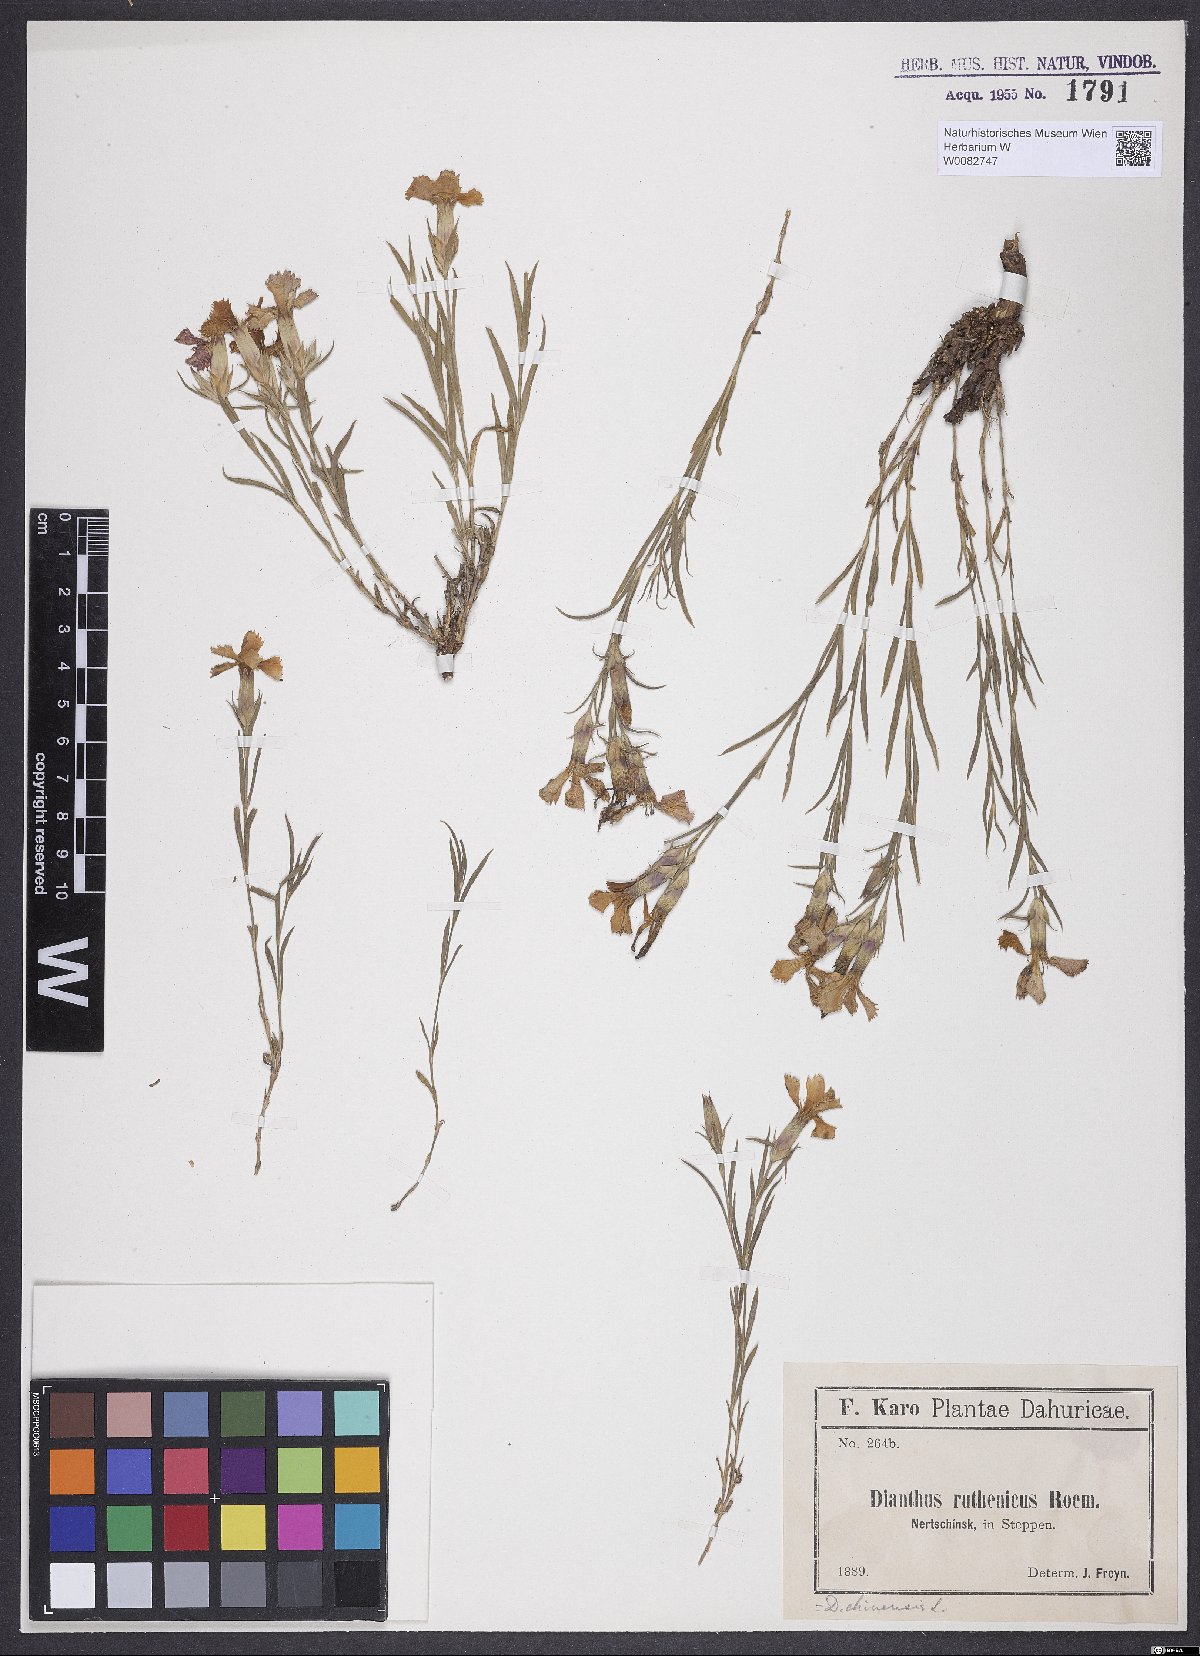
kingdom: Plantae
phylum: Tracheophyta
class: Magnoliopsida
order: Caryophyllales
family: Caryophyllaceae
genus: Dianthus
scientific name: Dianthus chinensis
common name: Rainbow pink
